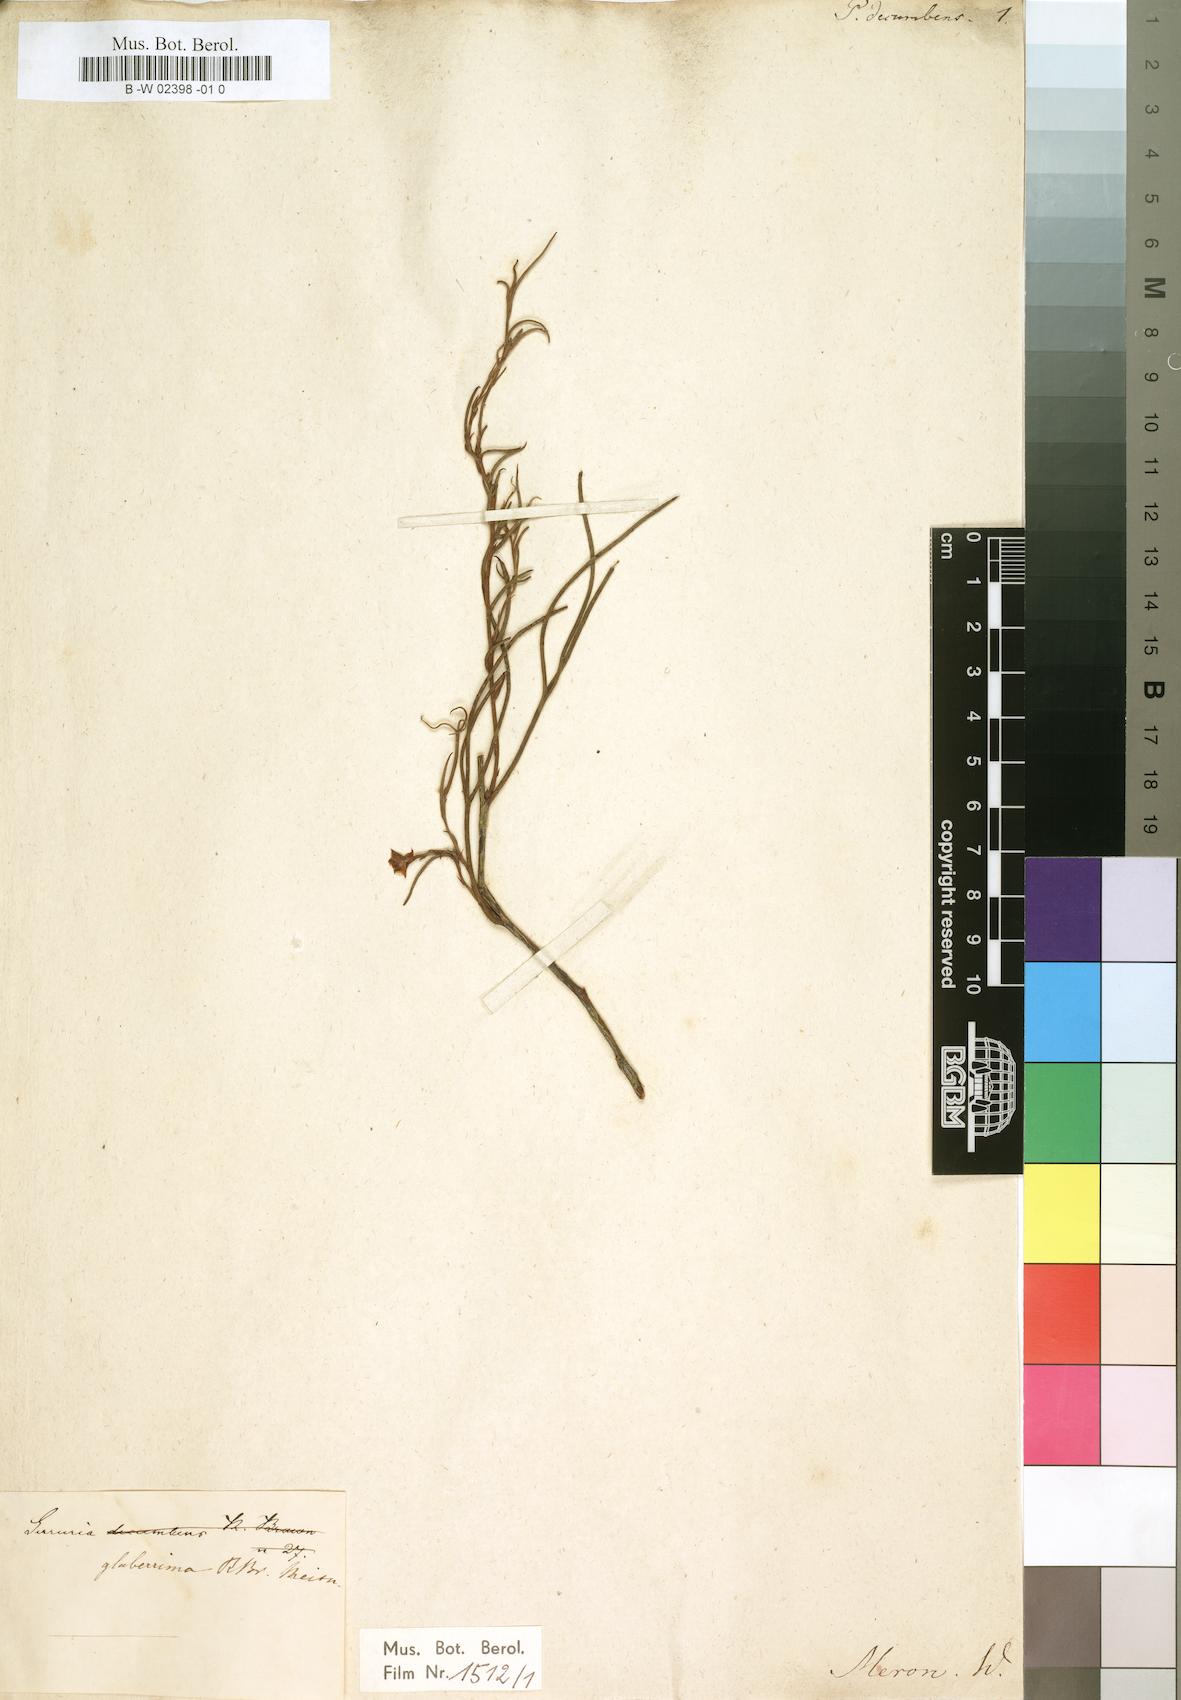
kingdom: Plantae
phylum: Tracheophyta
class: Magnoliopsida
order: Proteales
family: Proteaceae
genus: Serruria
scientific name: Serruria
